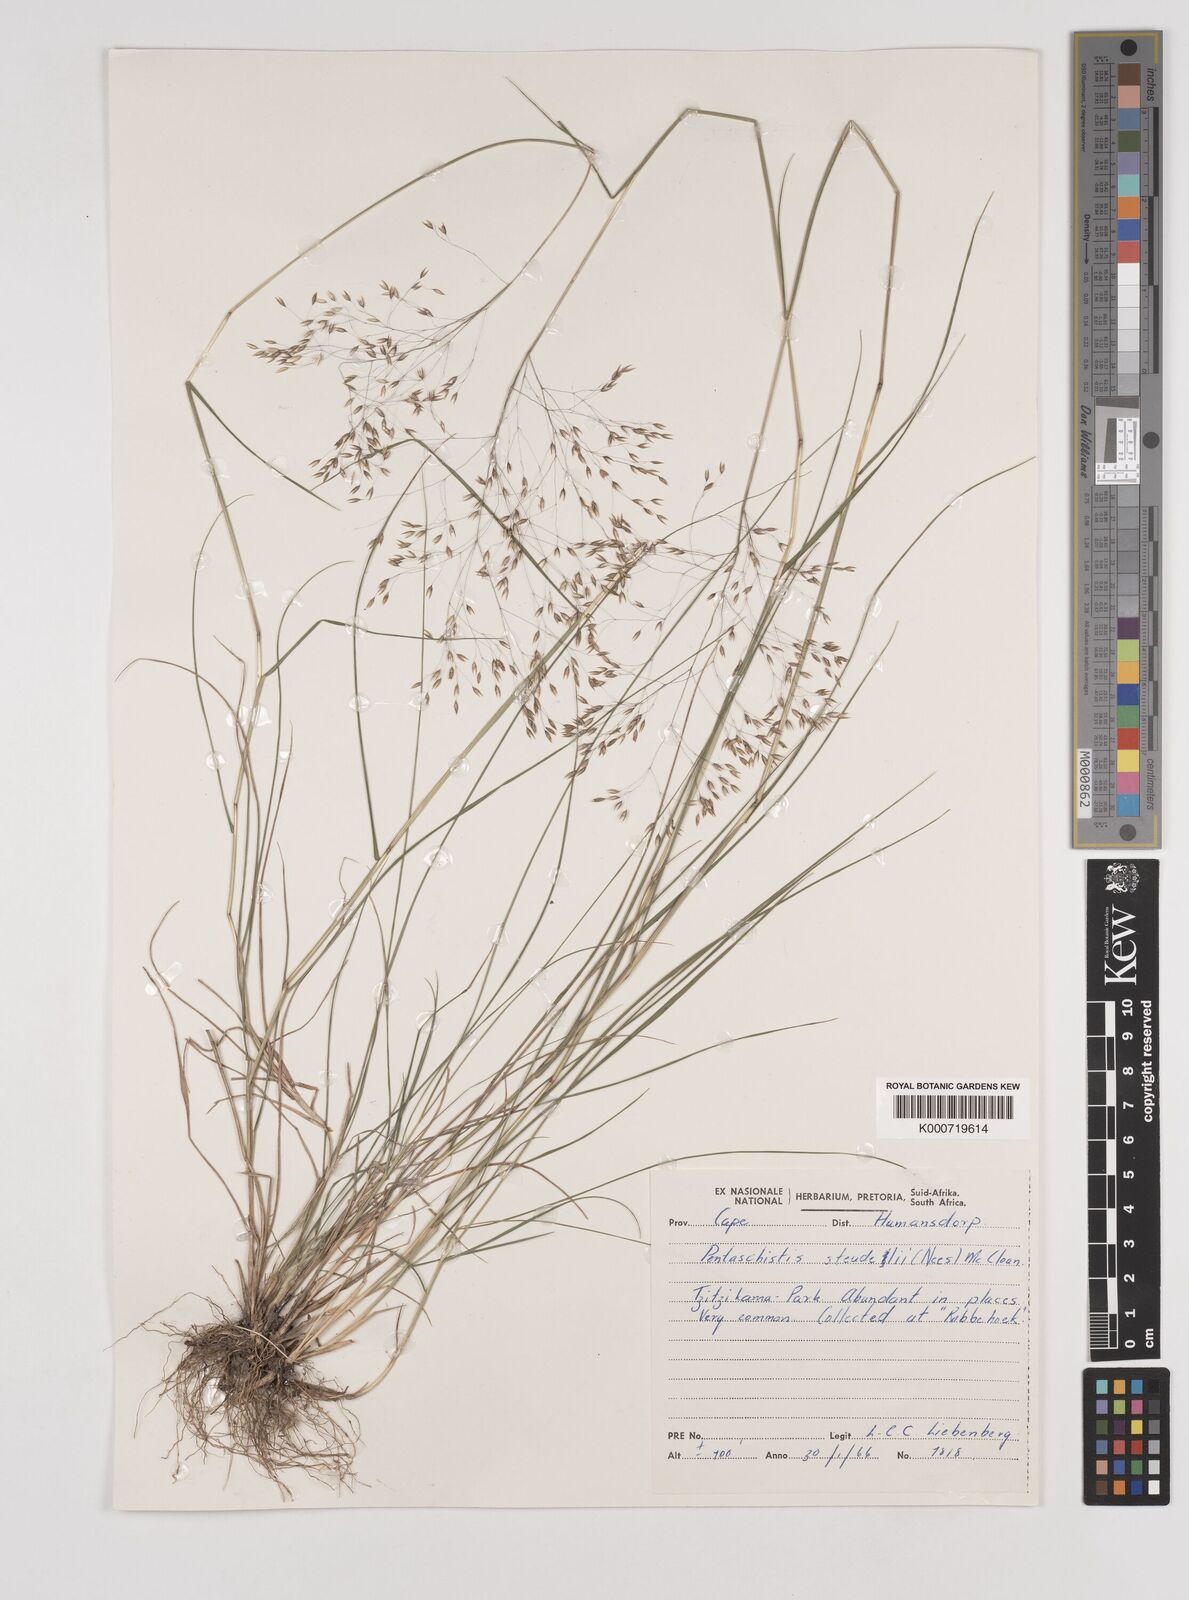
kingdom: Plantae
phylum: Tracheophyta
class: Liliopsida
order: Poales
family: Poaceae
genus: Pentameris
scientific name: Pentameris malouinensis
